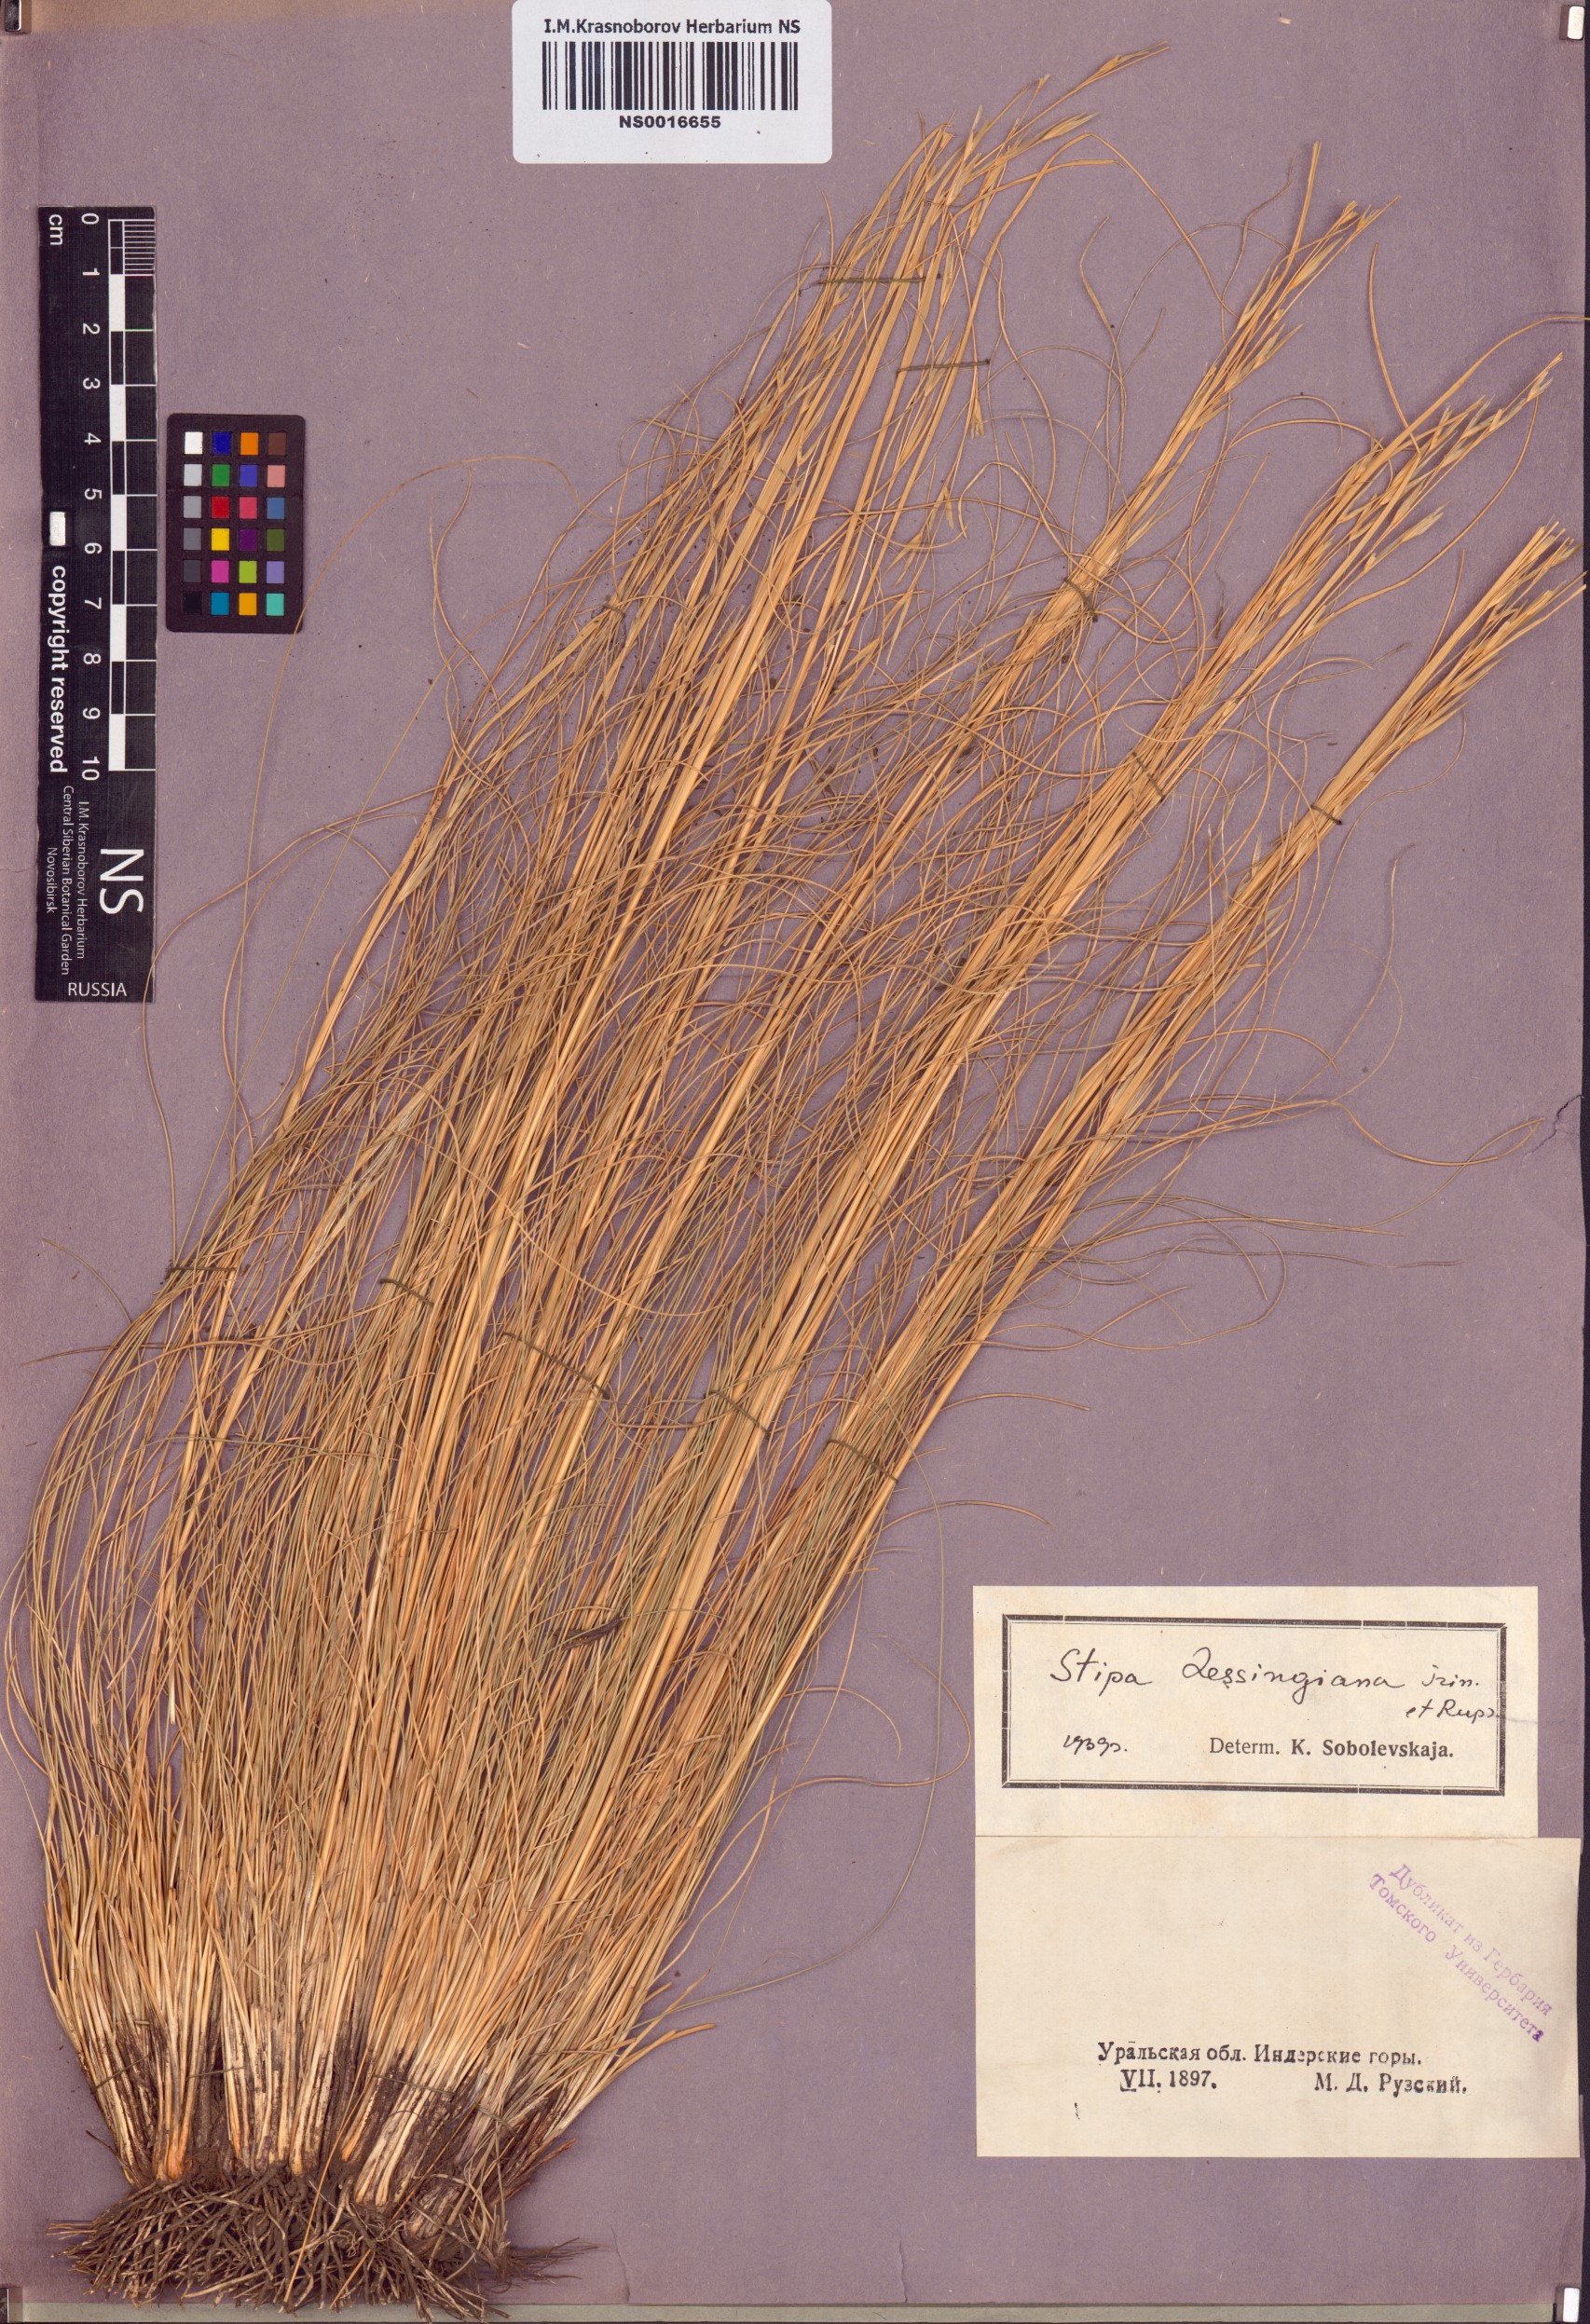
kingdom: Plantae
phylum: Tracheophyta
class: Liliopsida
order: Poales
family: Poaceae
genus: Stipa
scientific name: Stipa lessingiana
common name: Needle grass
